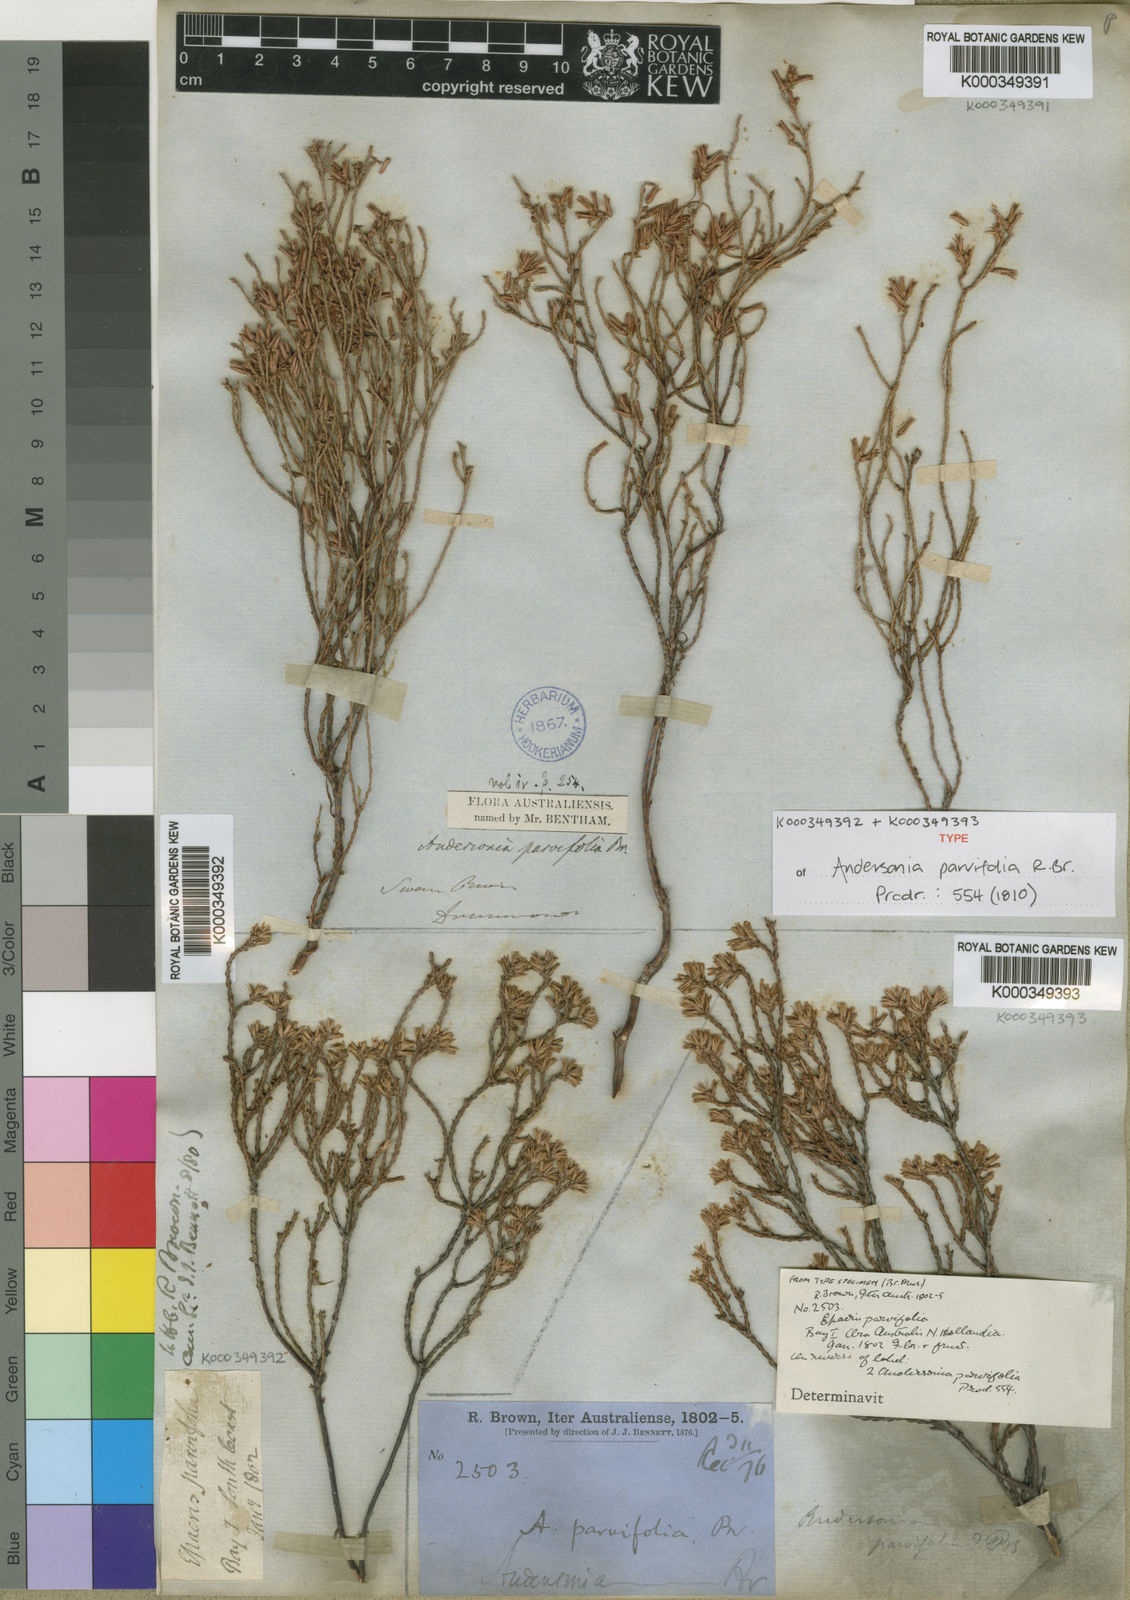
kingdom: Plantae
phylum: Tracheophyta
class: Magnoliopsida
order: Ericales
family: Ericaceae
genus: Andersonia
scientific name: Andersonia parvifolia
